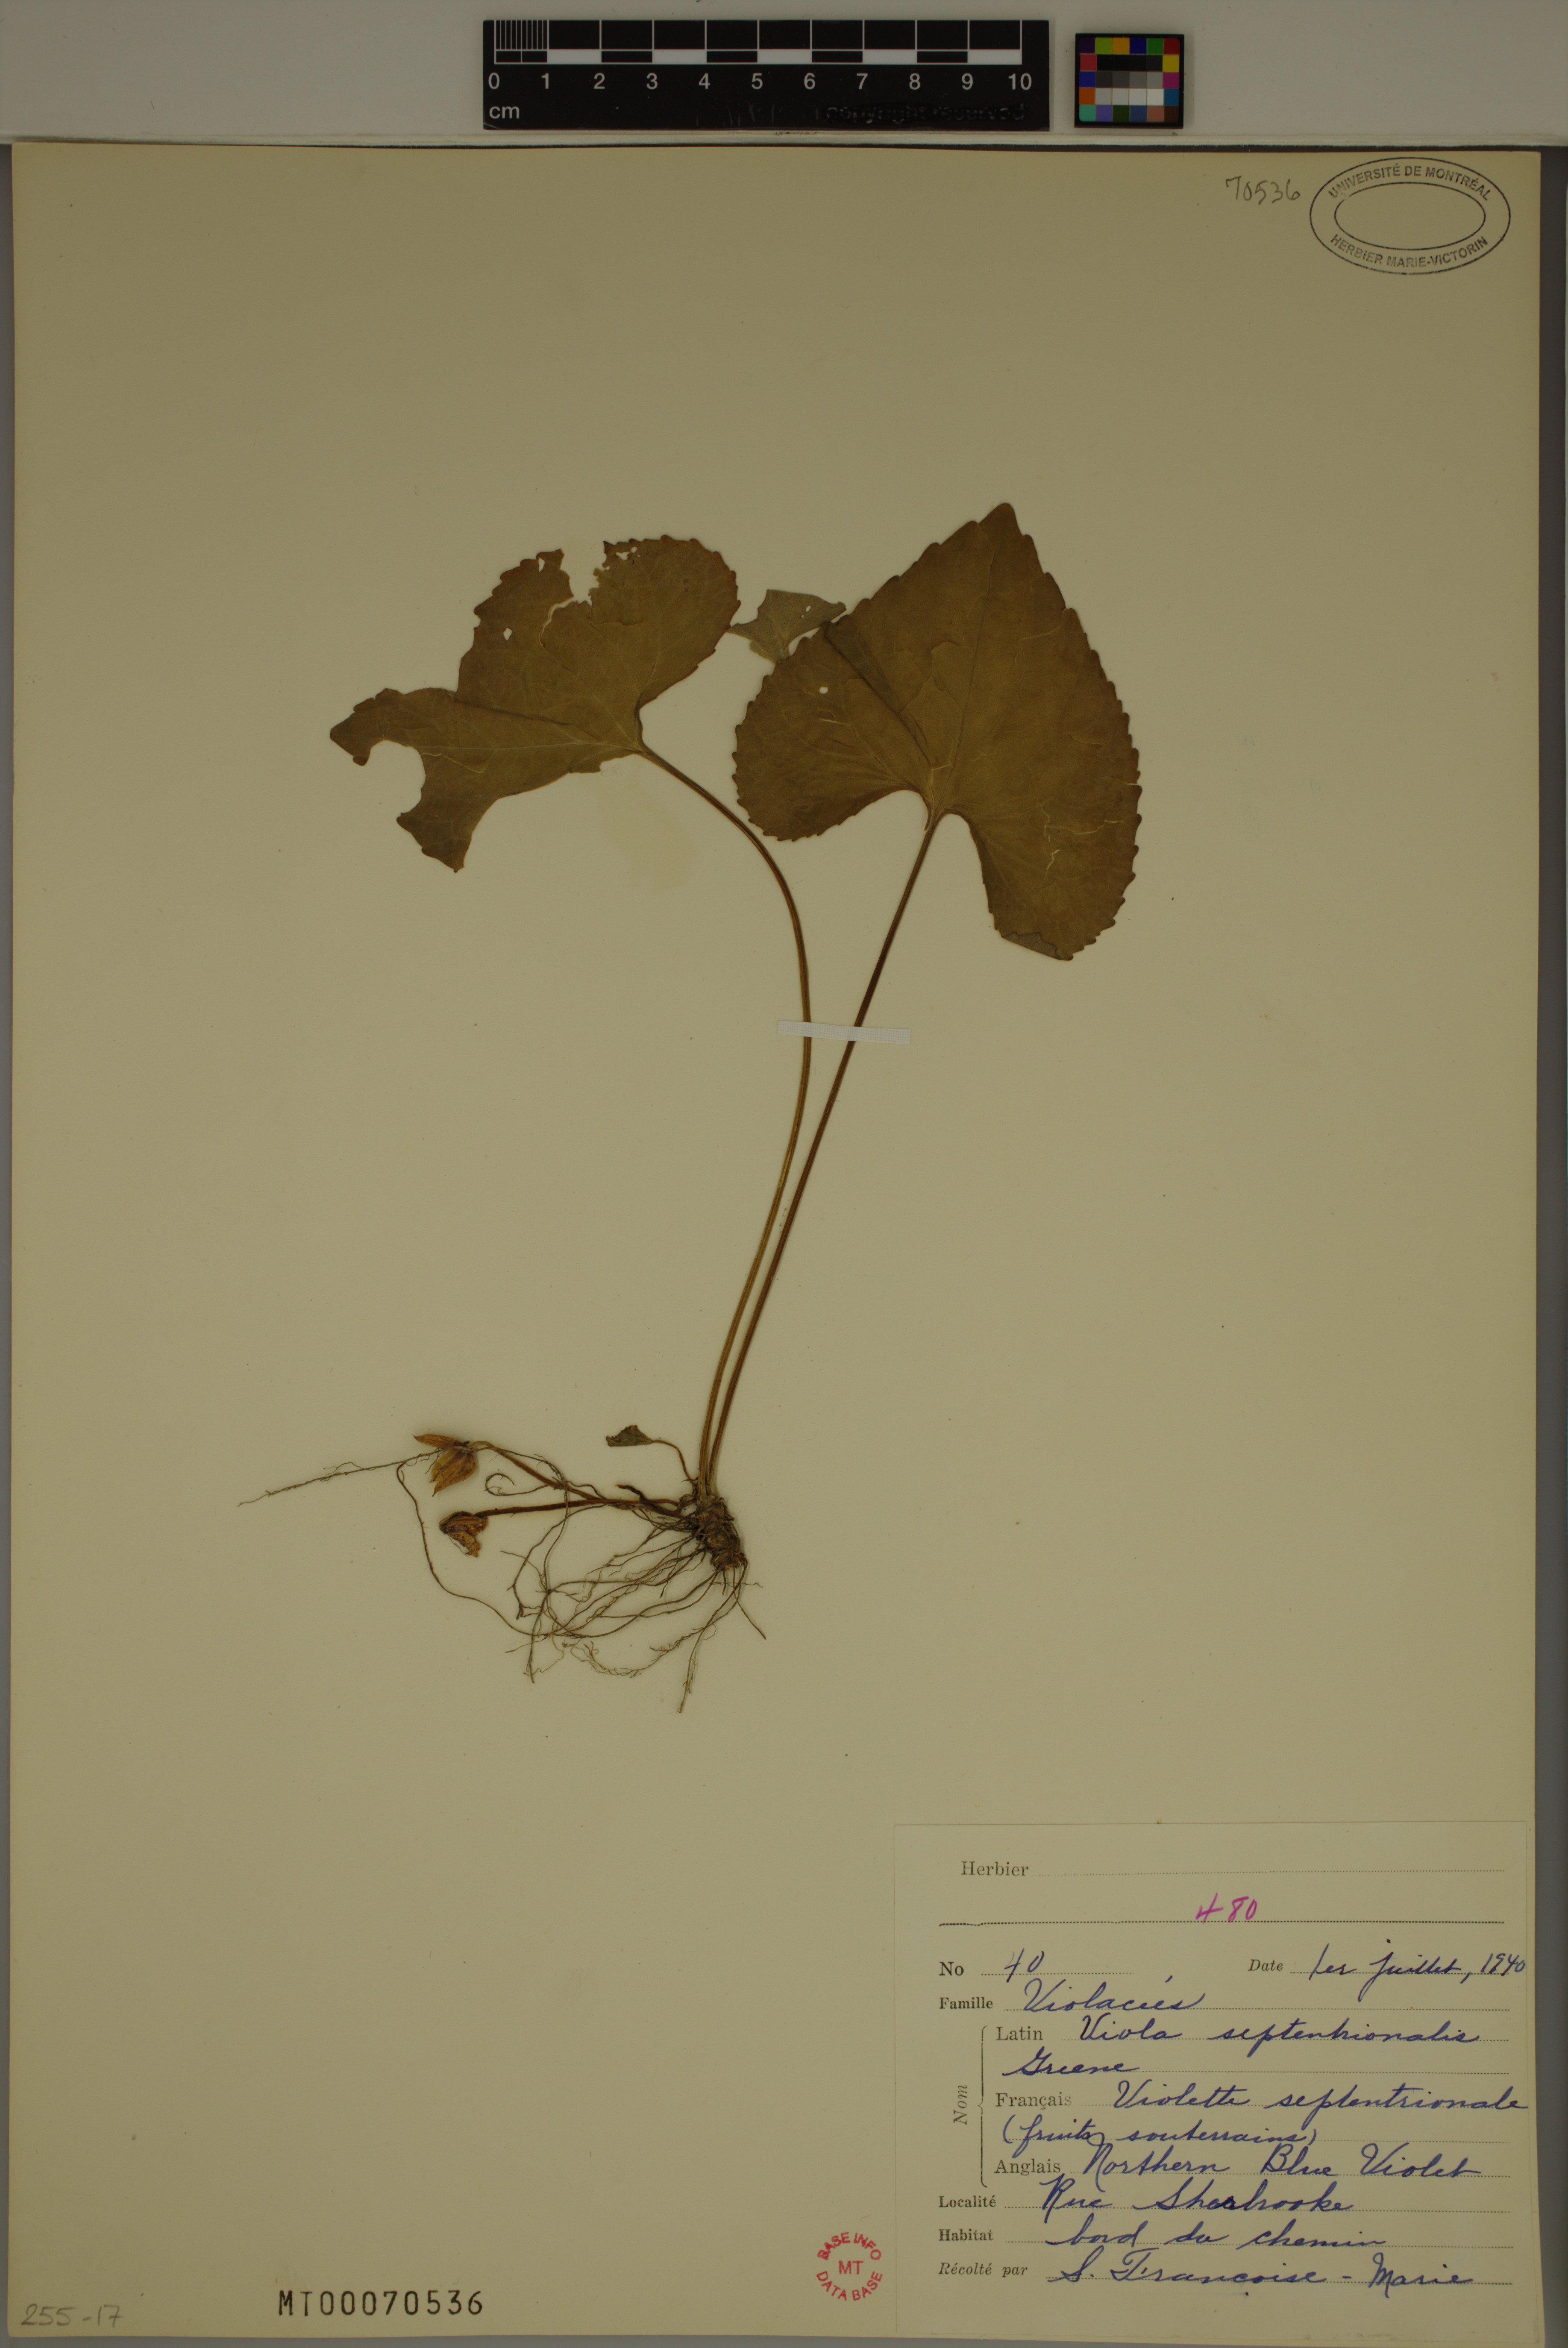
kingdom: Plantae
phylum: Tracheophyta
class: Magnoliopsida
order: Malpighiales
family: Violaceae
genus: Viola
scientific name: Viola sororia
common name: Dooryard violet
